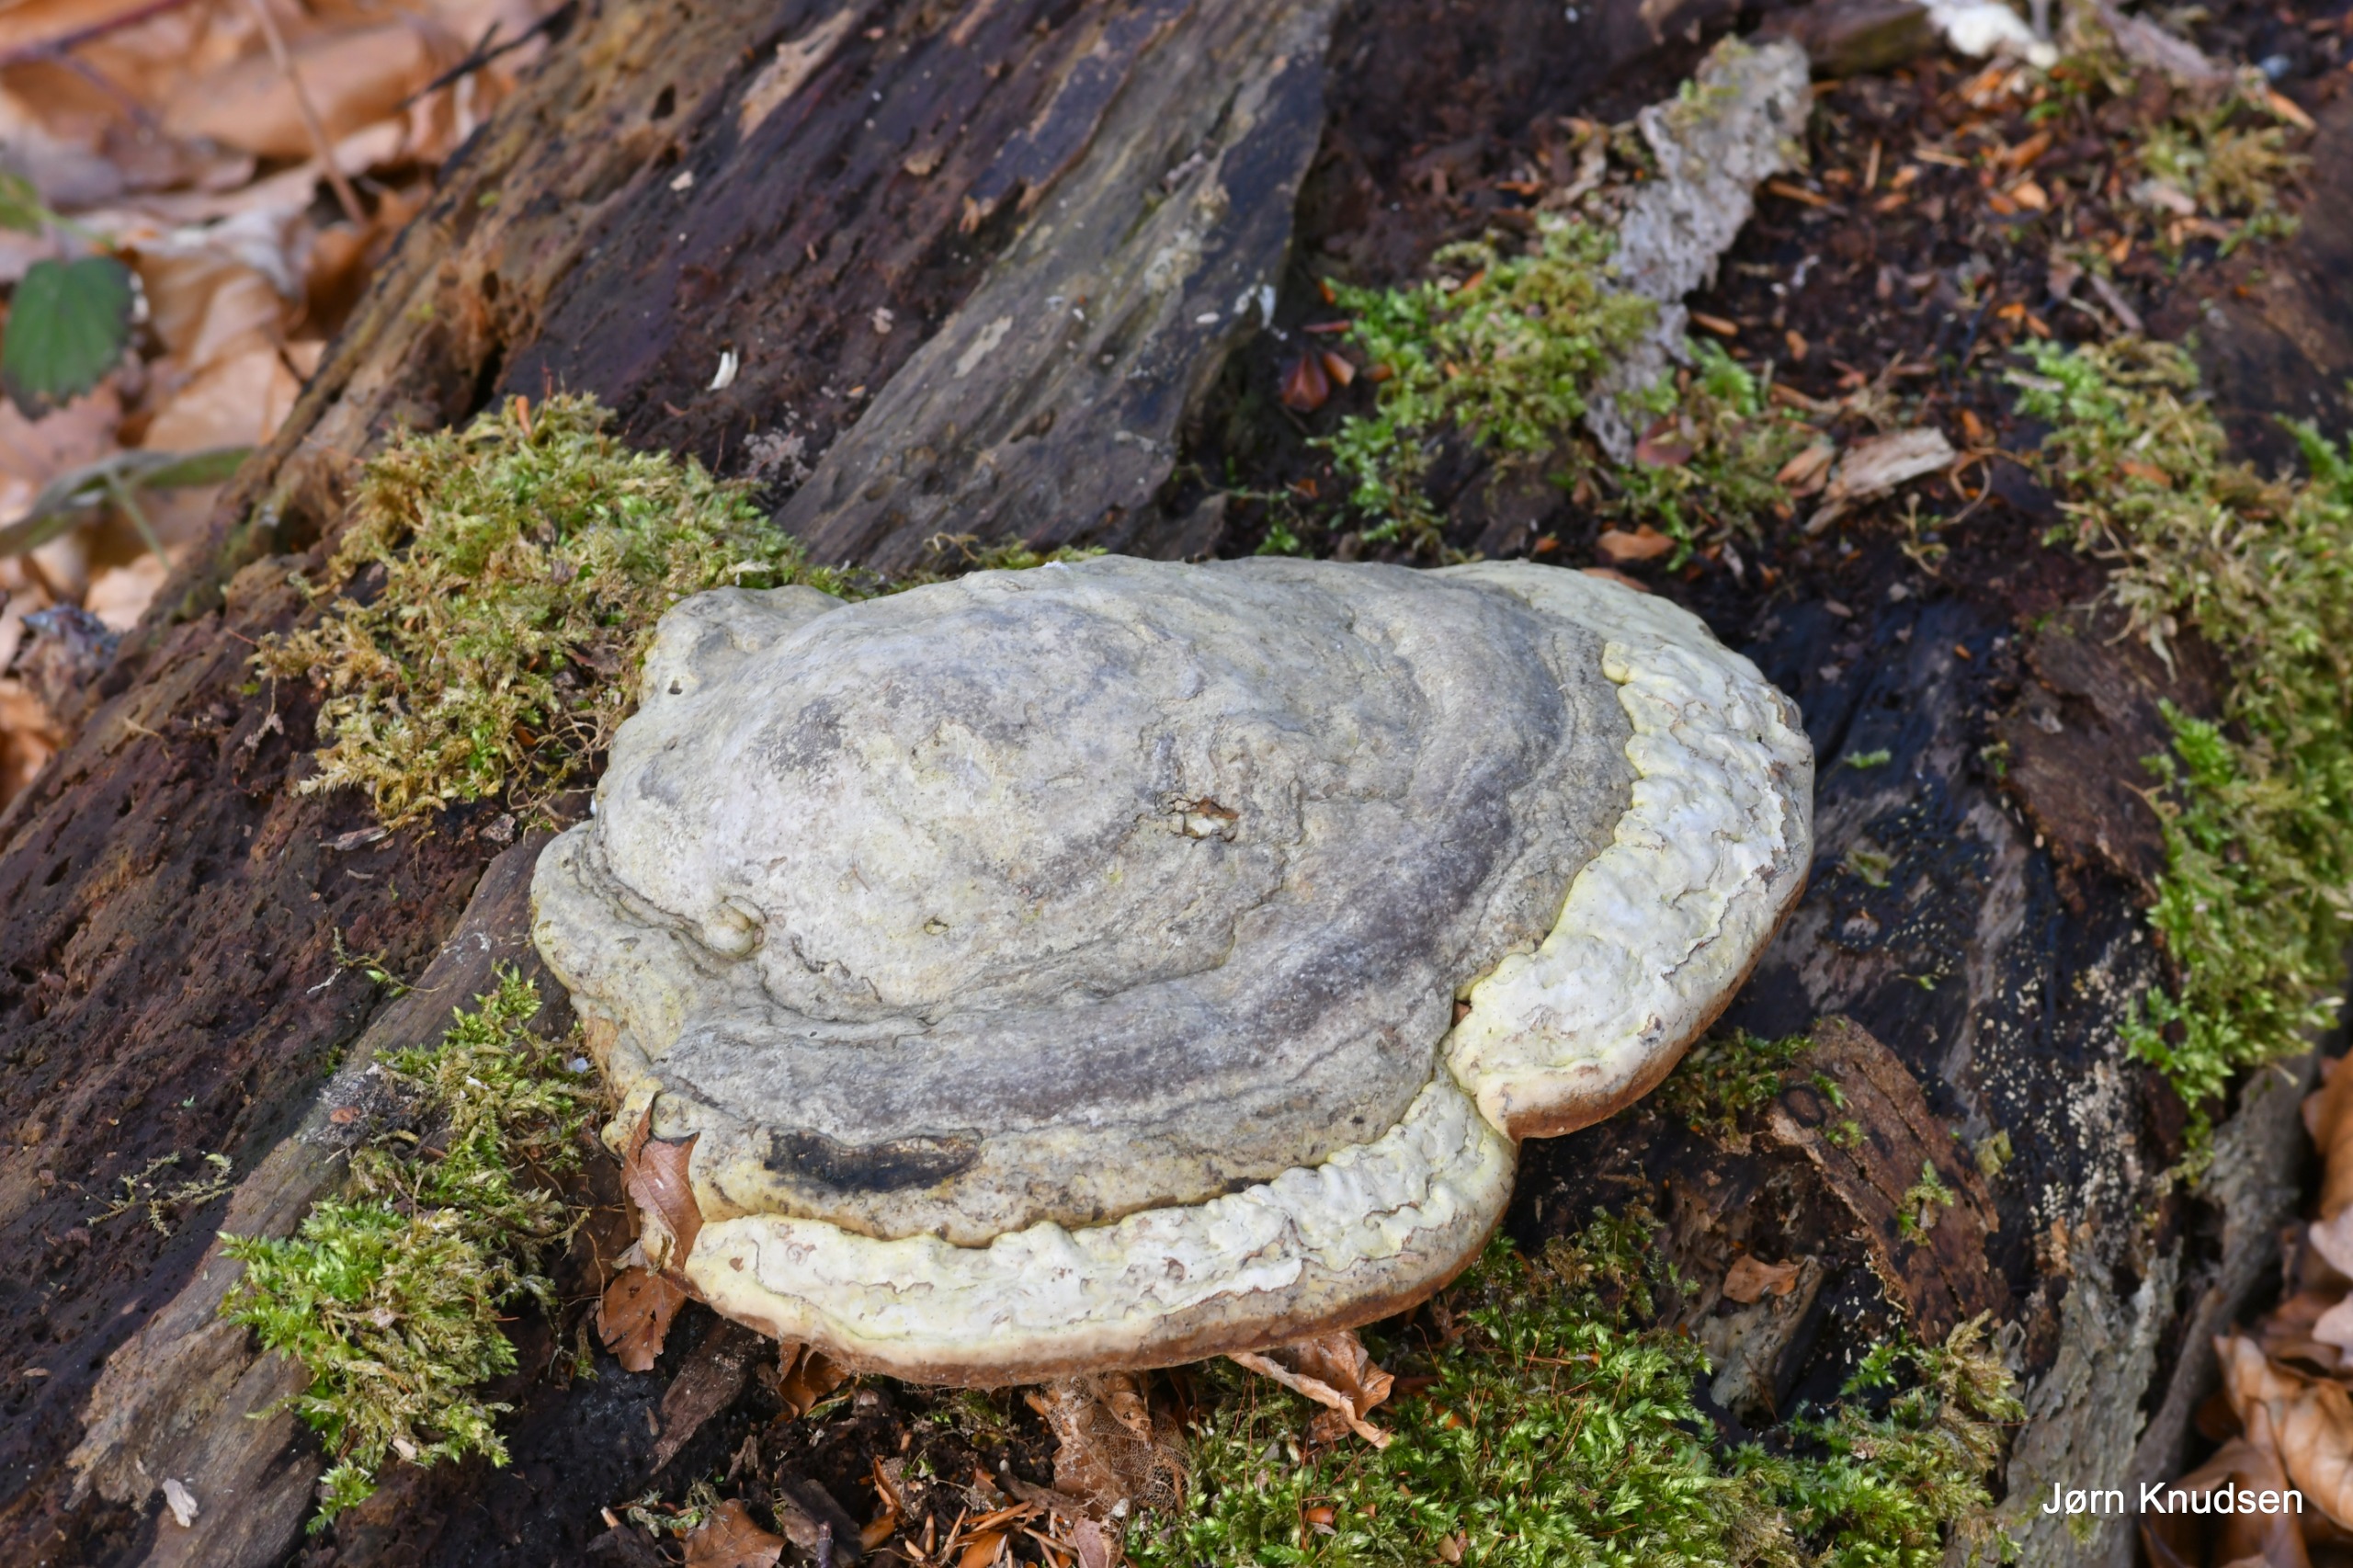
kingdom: Fungi
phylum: Basidiomycota
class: Agaricomycetes
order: Polyporales
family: Polyporaceae
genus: Fomes
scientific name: Fomes fomentarius
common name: Tøndersvamp
